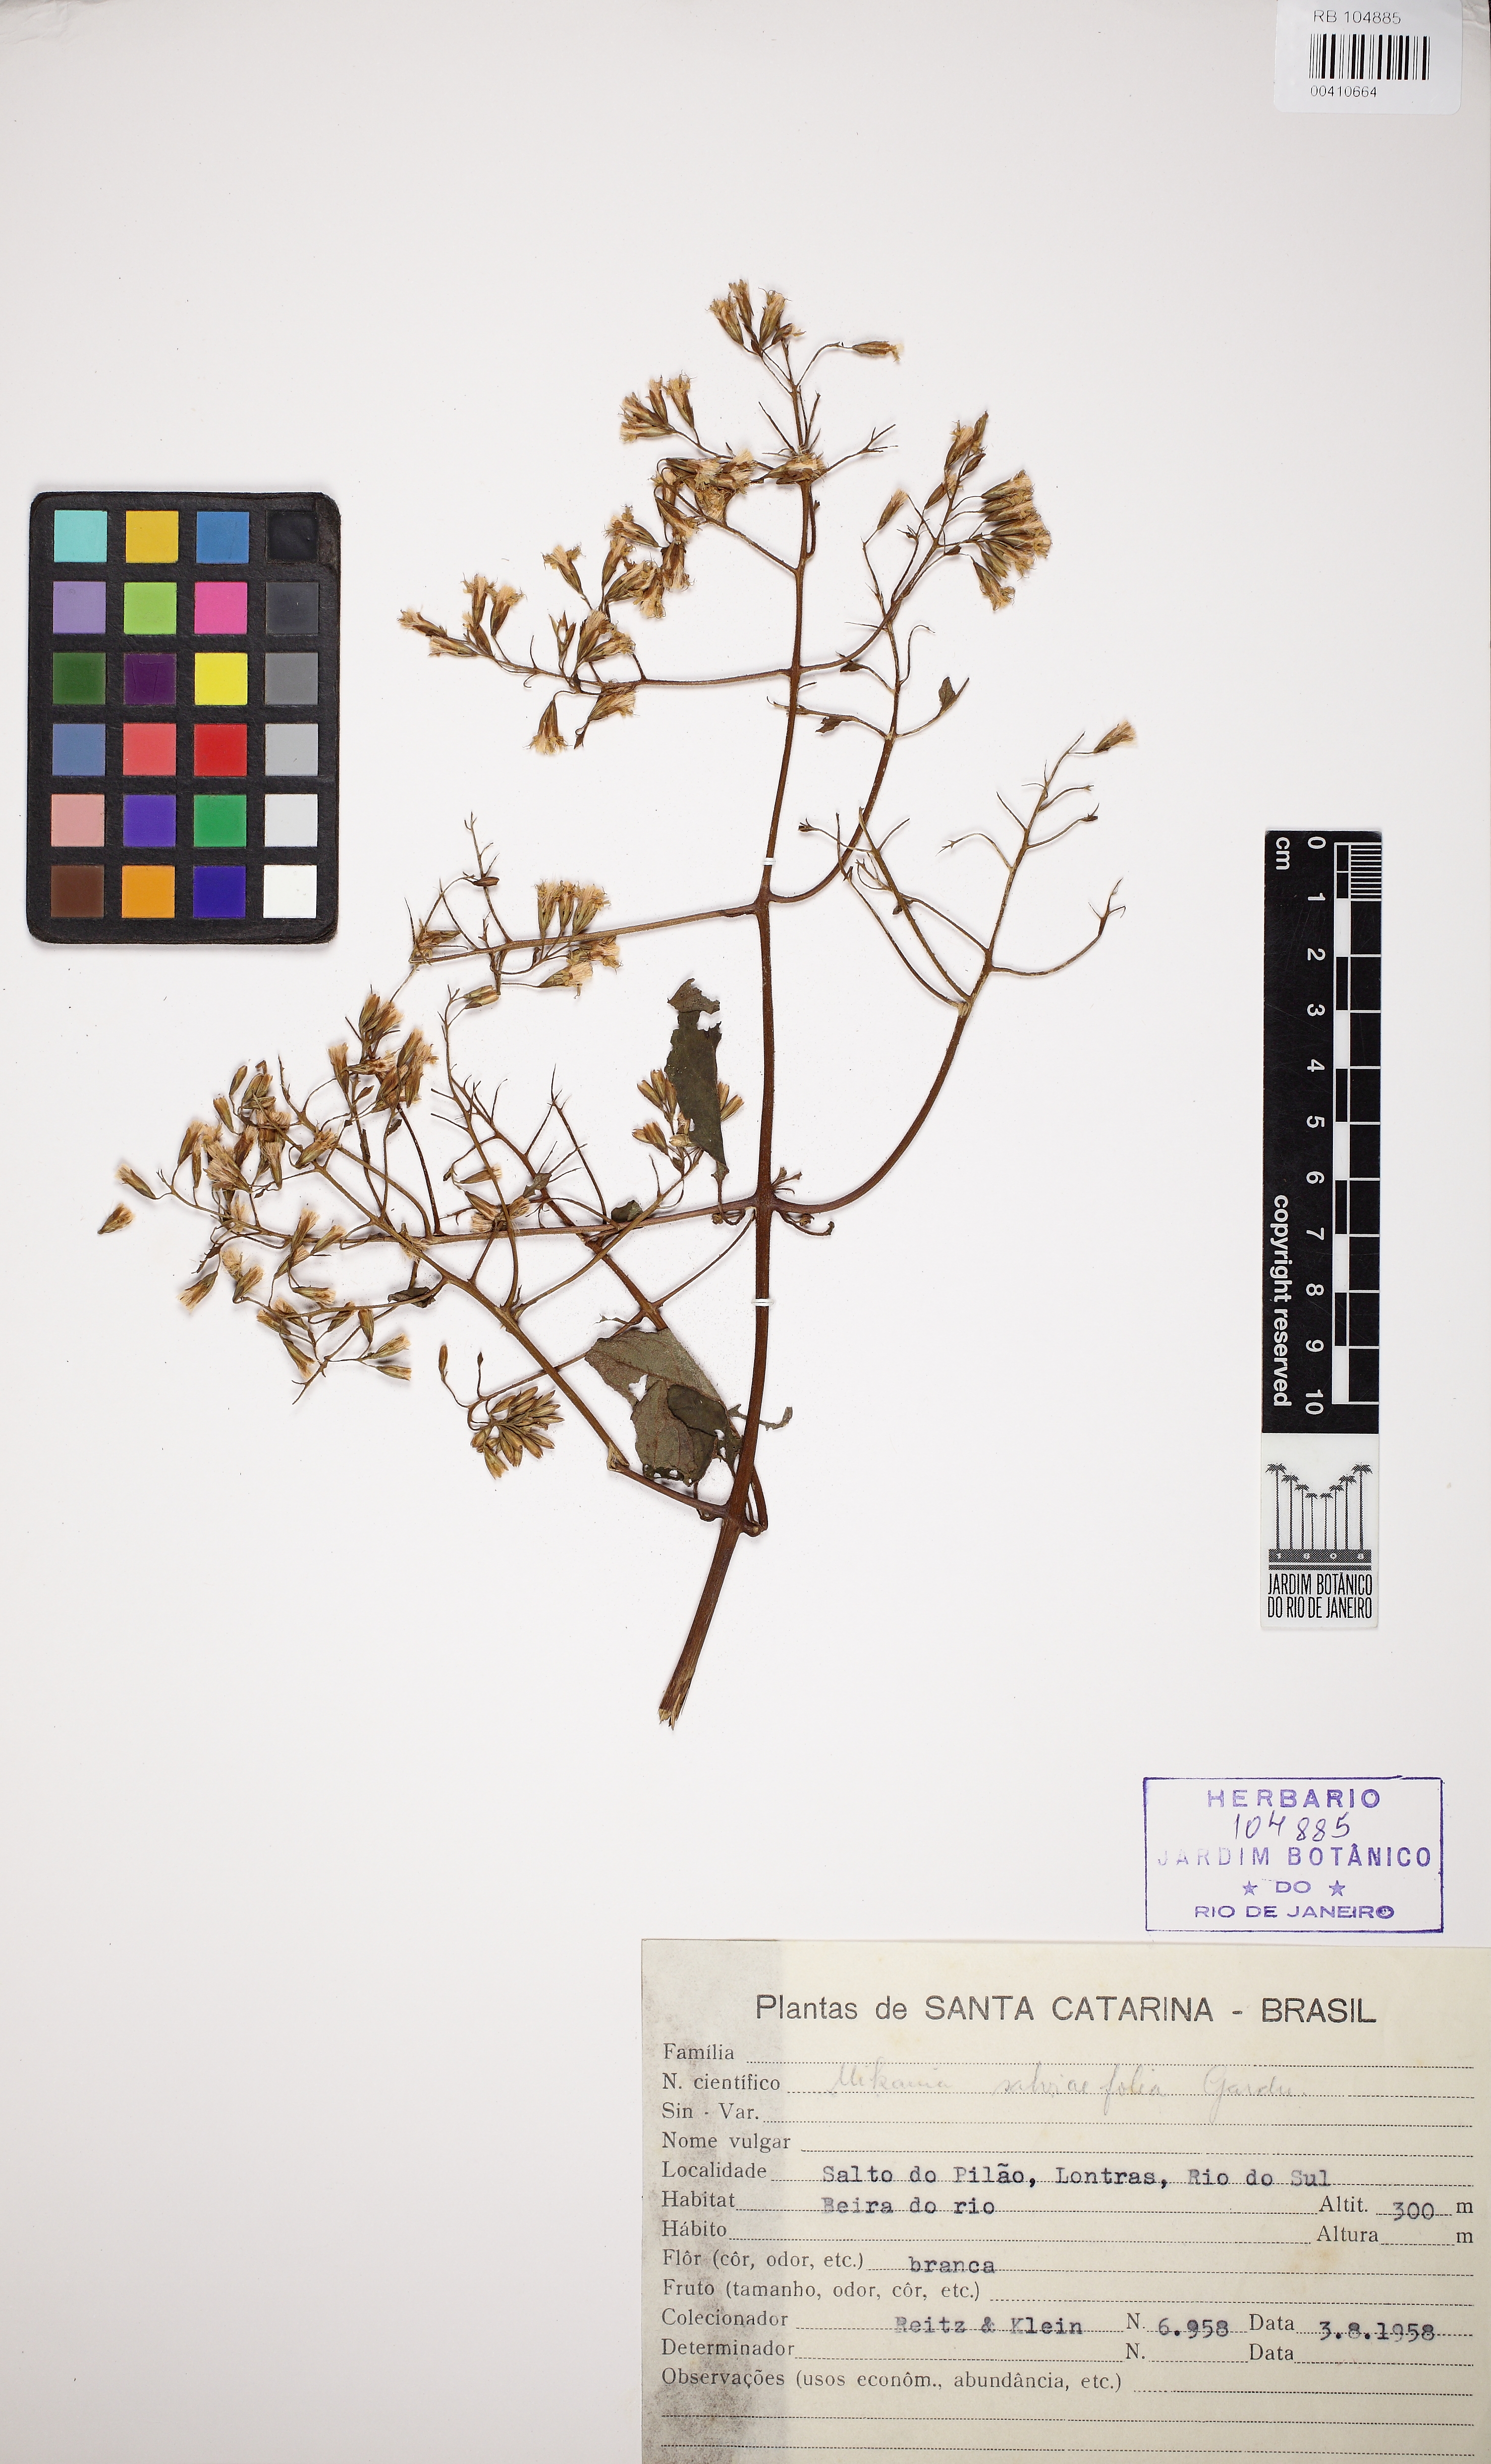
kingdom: Plantae
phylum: Tracheophyta
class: Magnoliopsida
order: Asterales
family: Asteraceae
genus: Mikania
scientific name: Mikania salviaefolia
